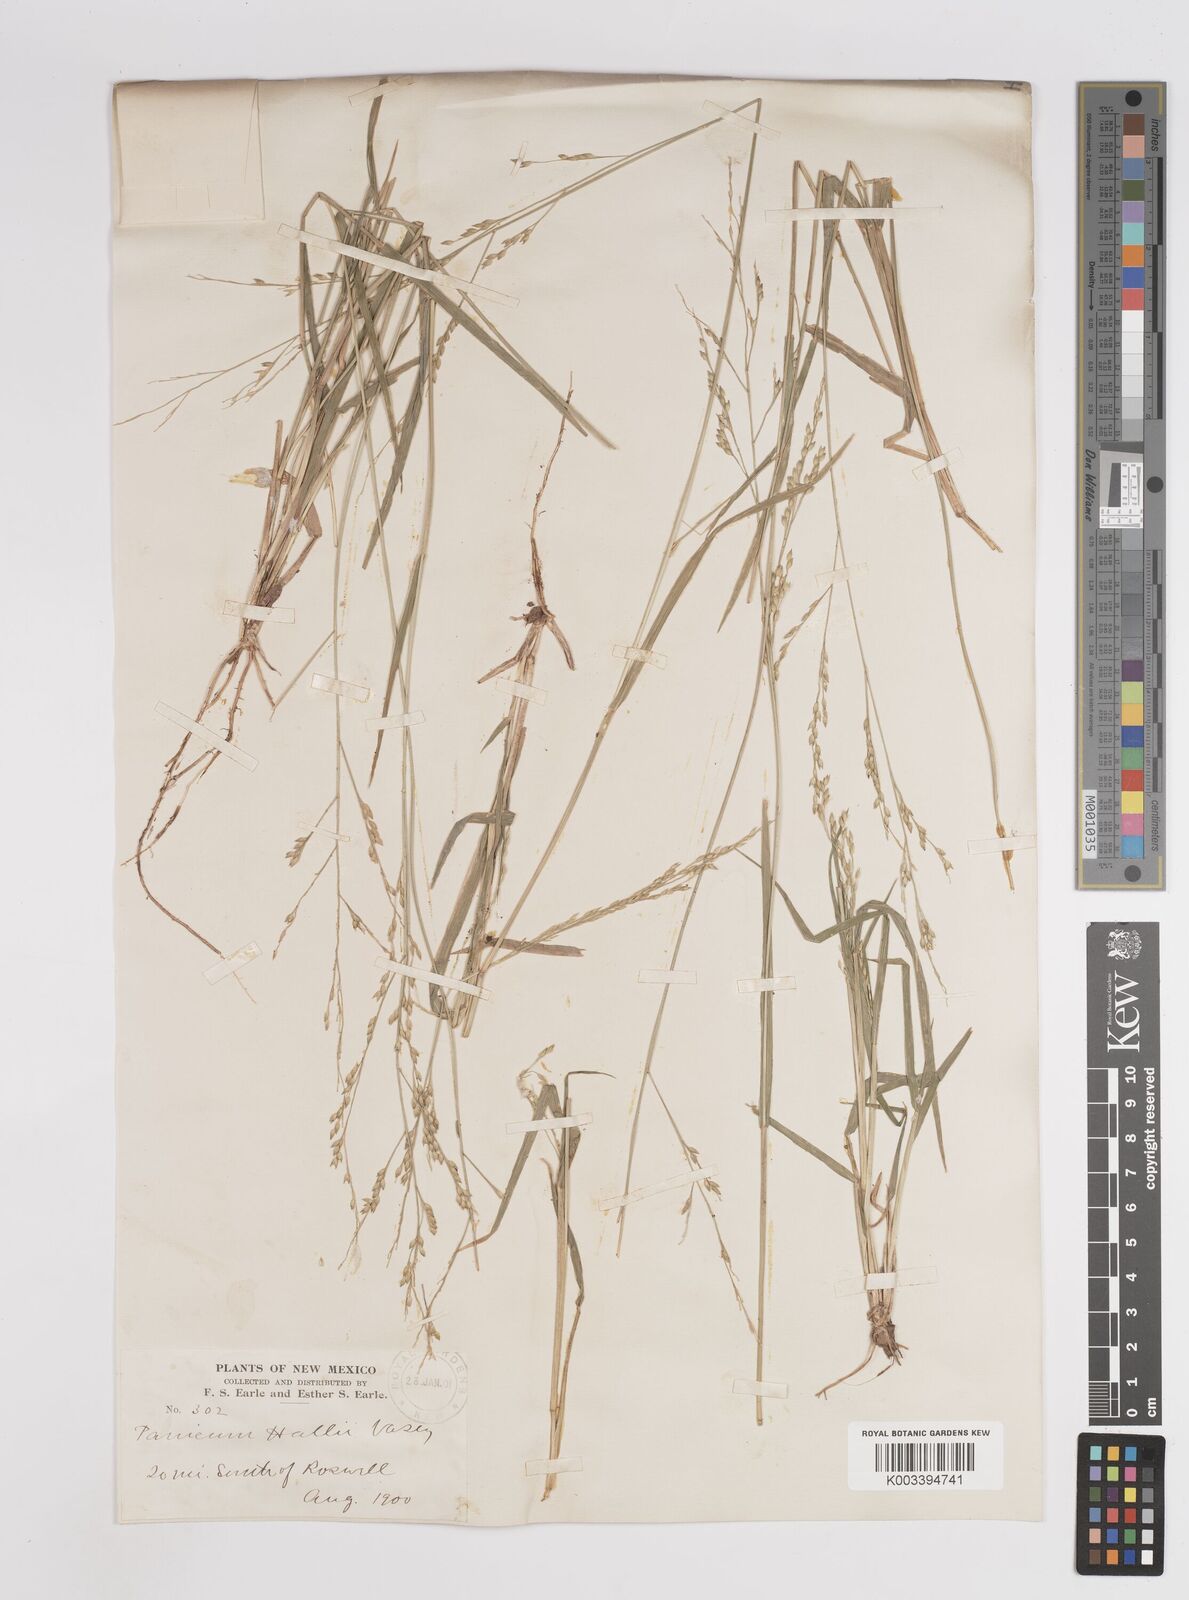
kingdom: Plantae
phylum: Tracheophyta
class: Liliopsida
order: Poales
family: Poaceae
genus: Panicum
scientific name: Panicum hallii
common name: Hall's witchgrass
